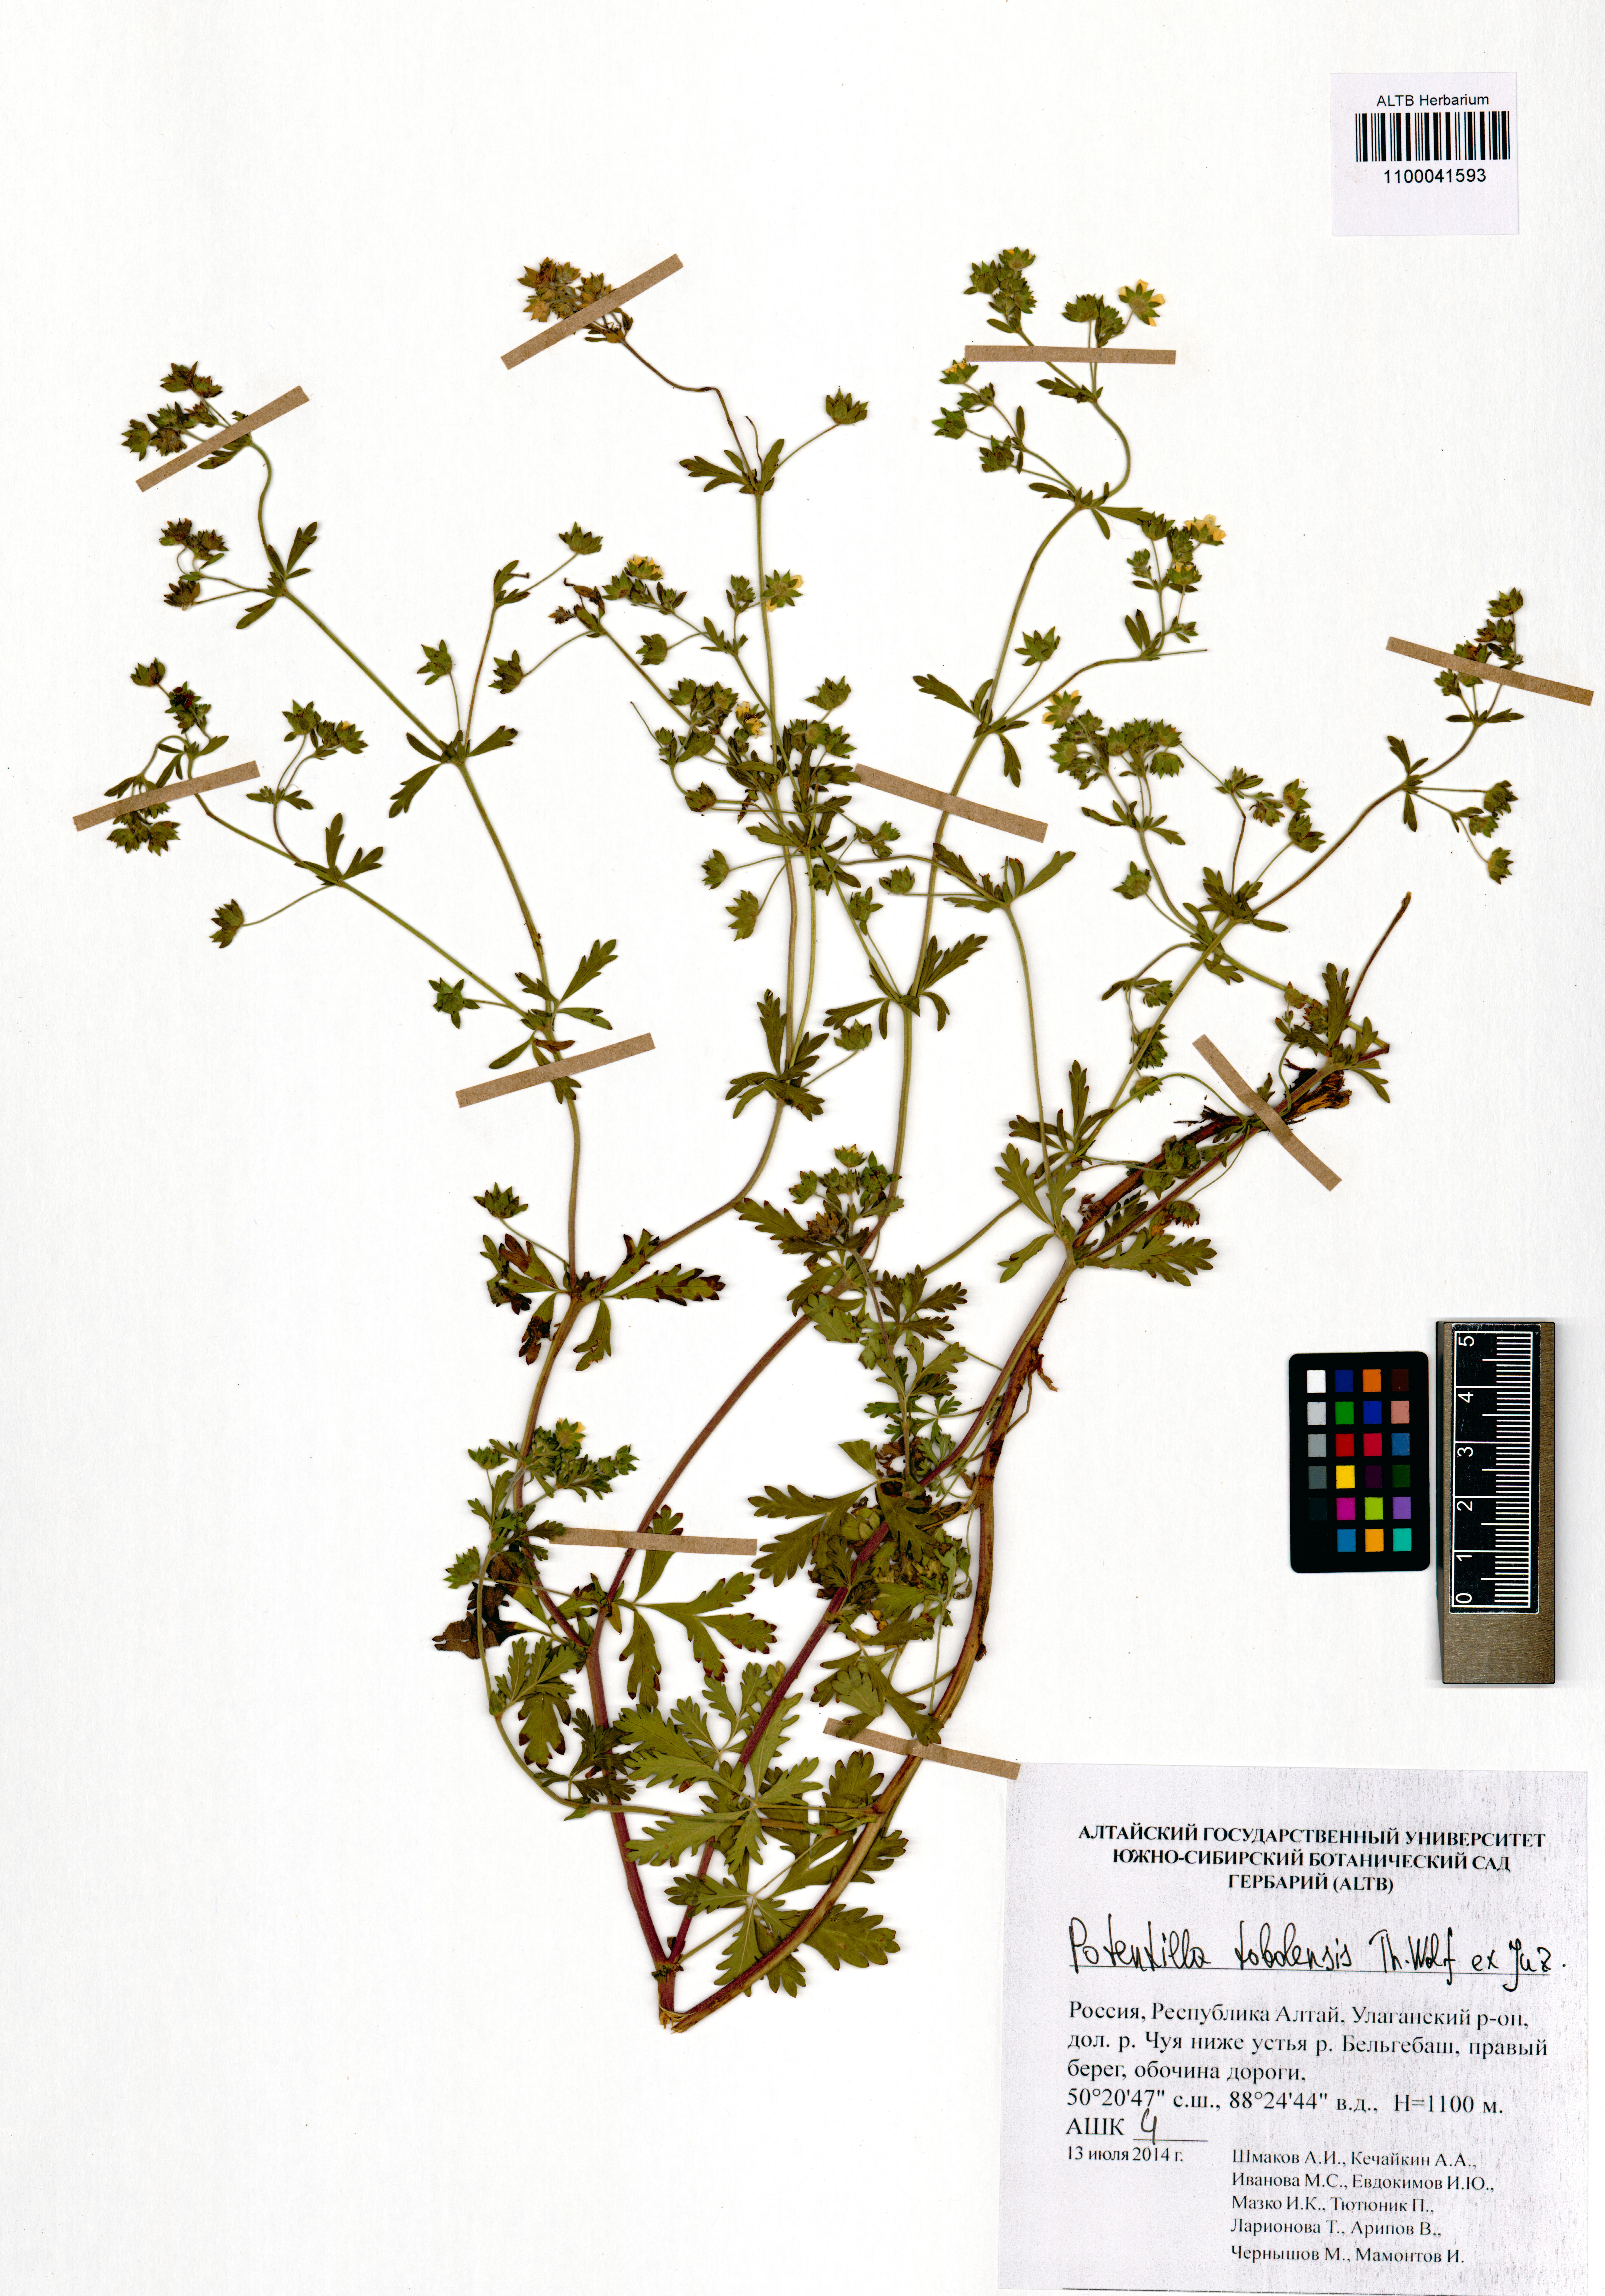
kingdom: Plantae
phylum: Tracheophyta
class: Magnoliopsida
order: Rosales
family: Rosaceae
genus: Potentilla
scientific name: Potentilla tobolensis
